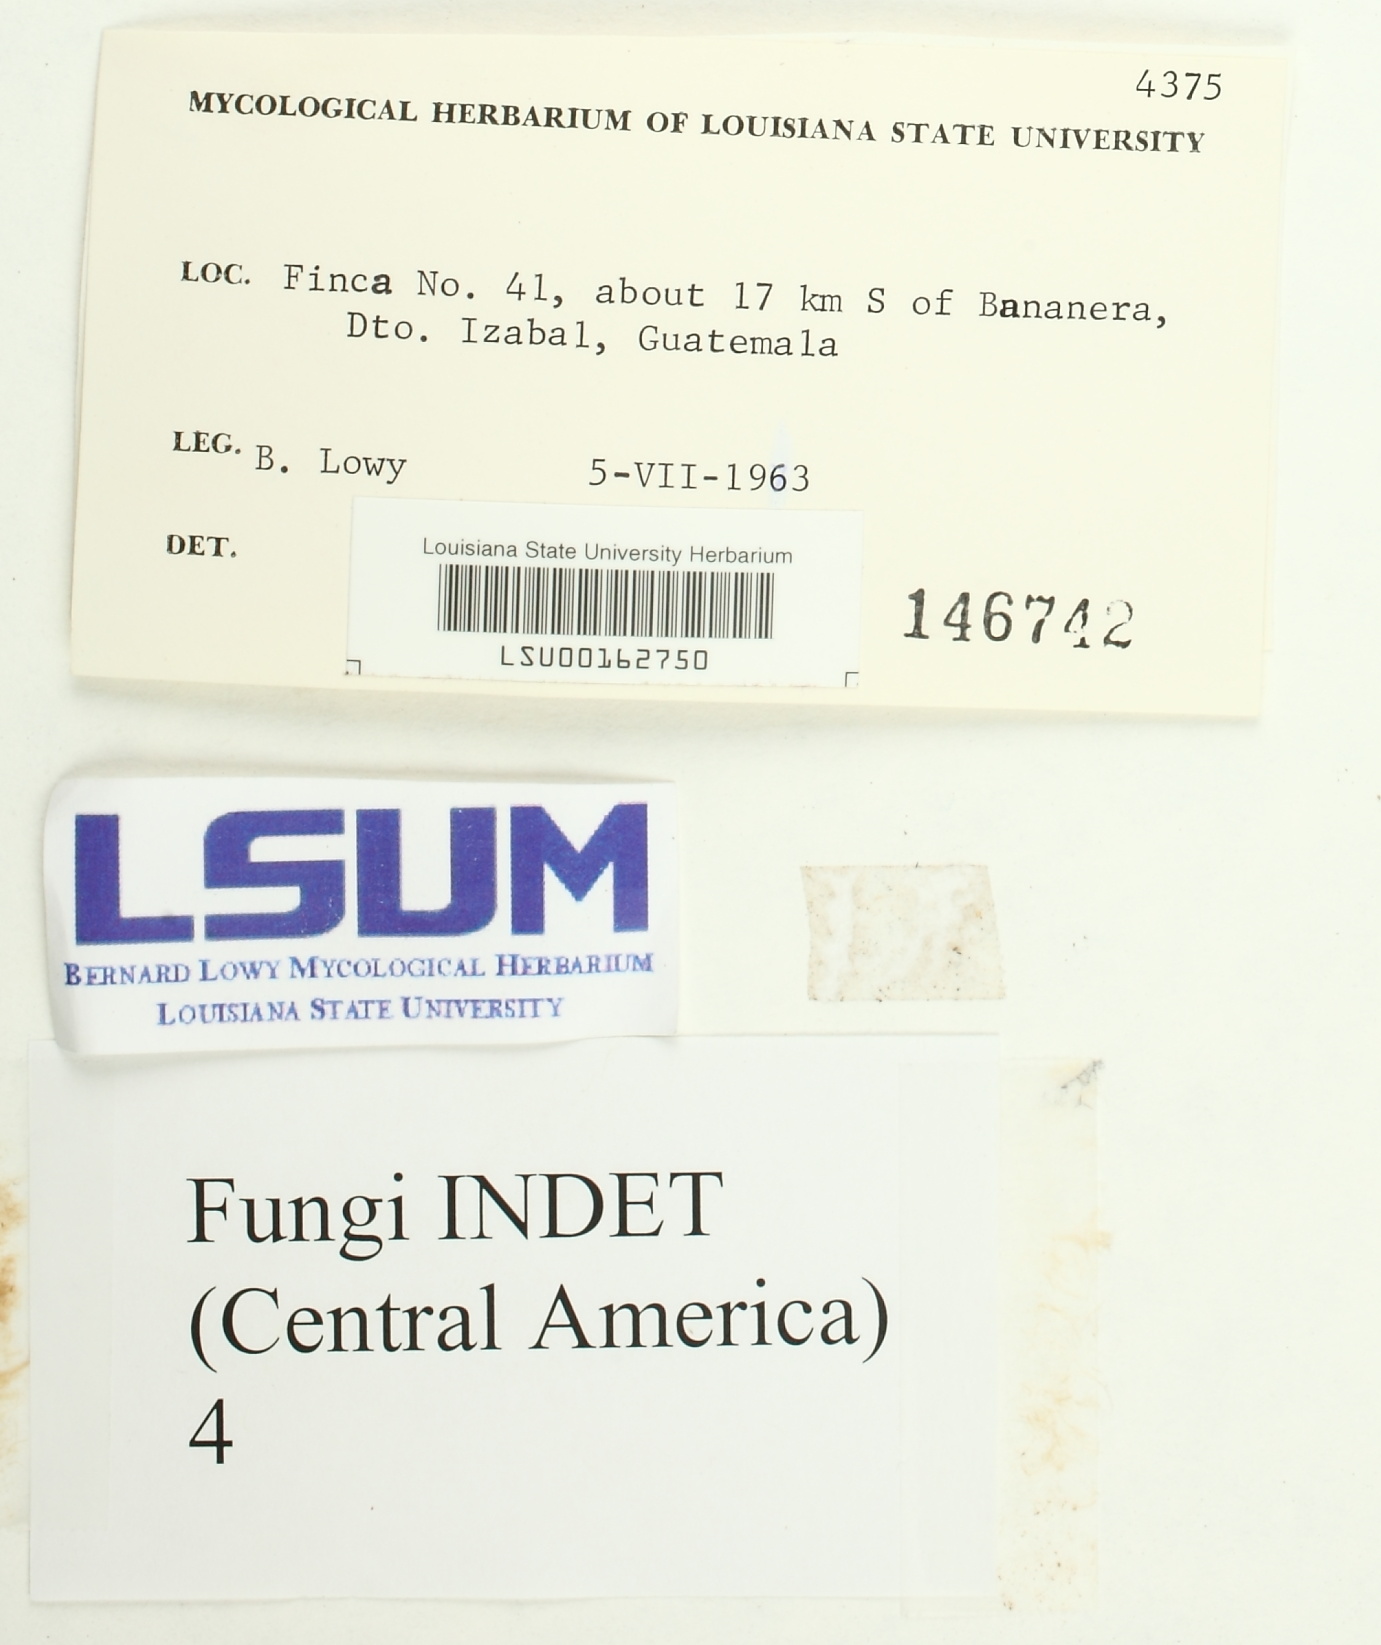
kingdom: Fungi
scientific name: Fungi
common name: Fungi
